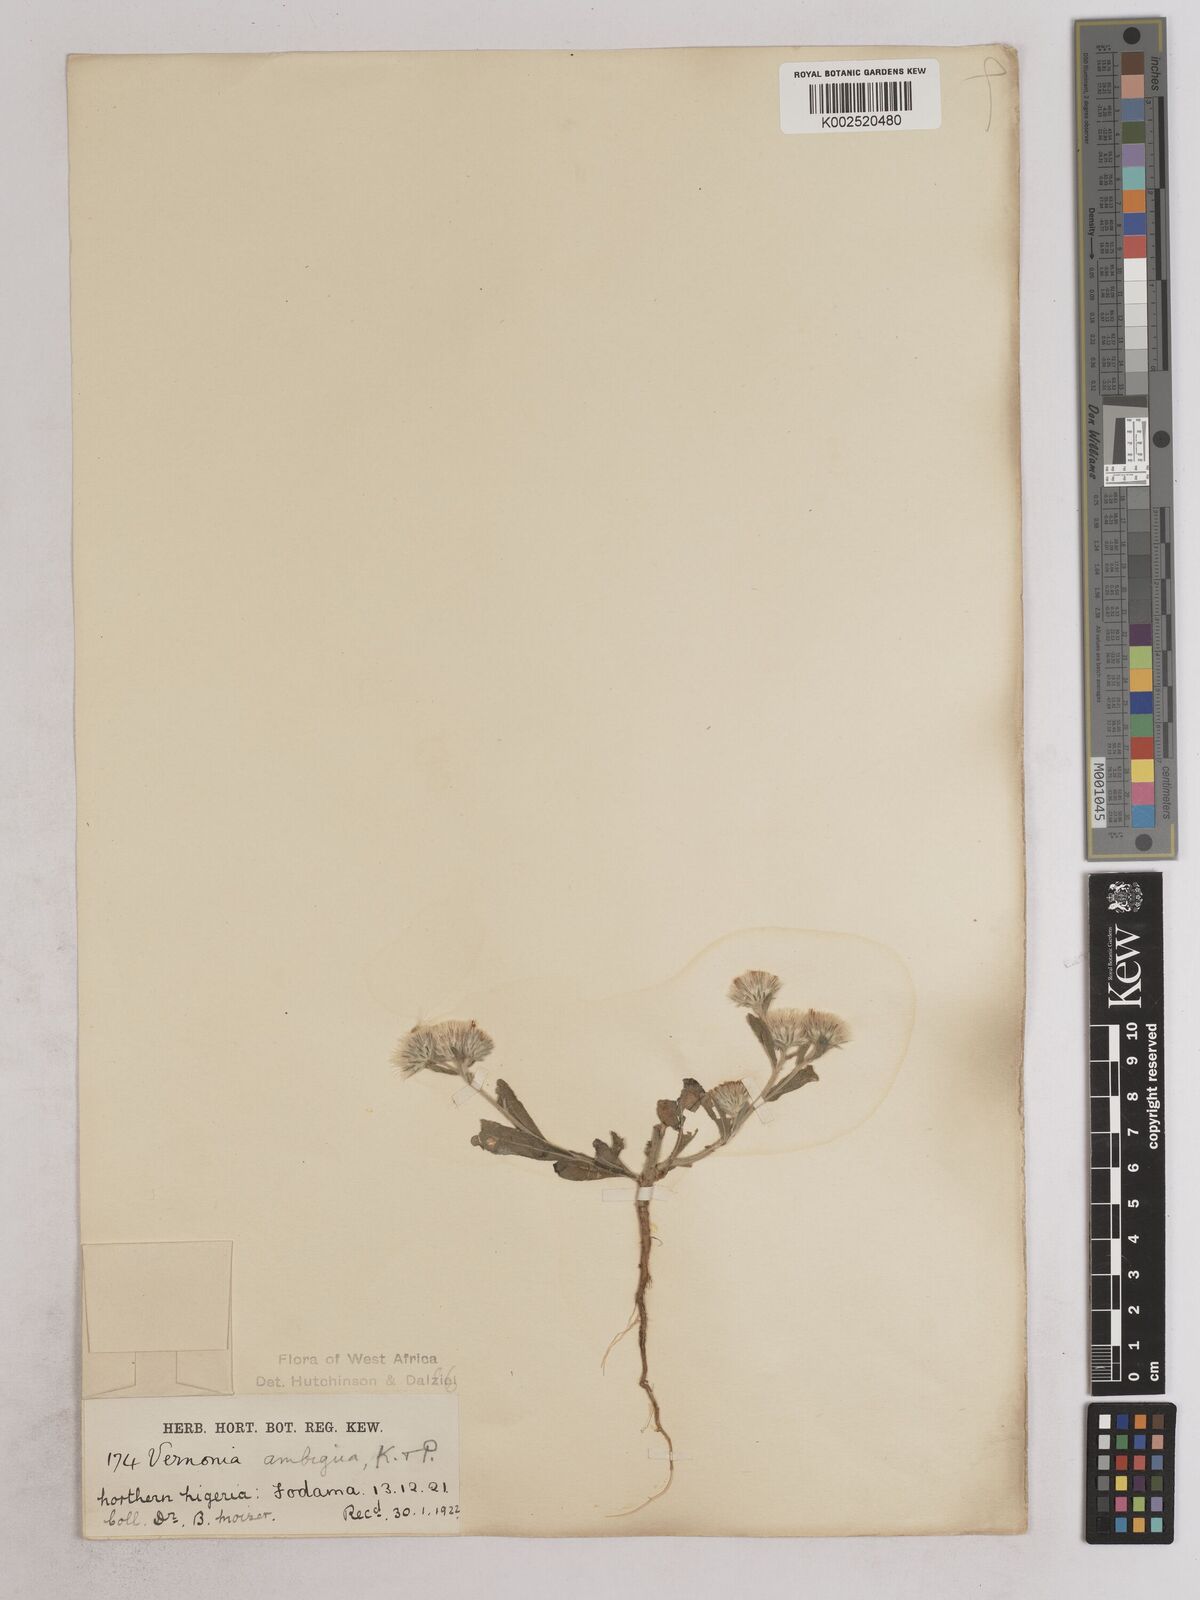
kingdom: Plantae
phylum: Tracheophyta
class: Magnoliopsida
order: Asterales
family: Asteraceae
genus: Vernoniastrum
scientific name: Vernoniastrum ambiguum
